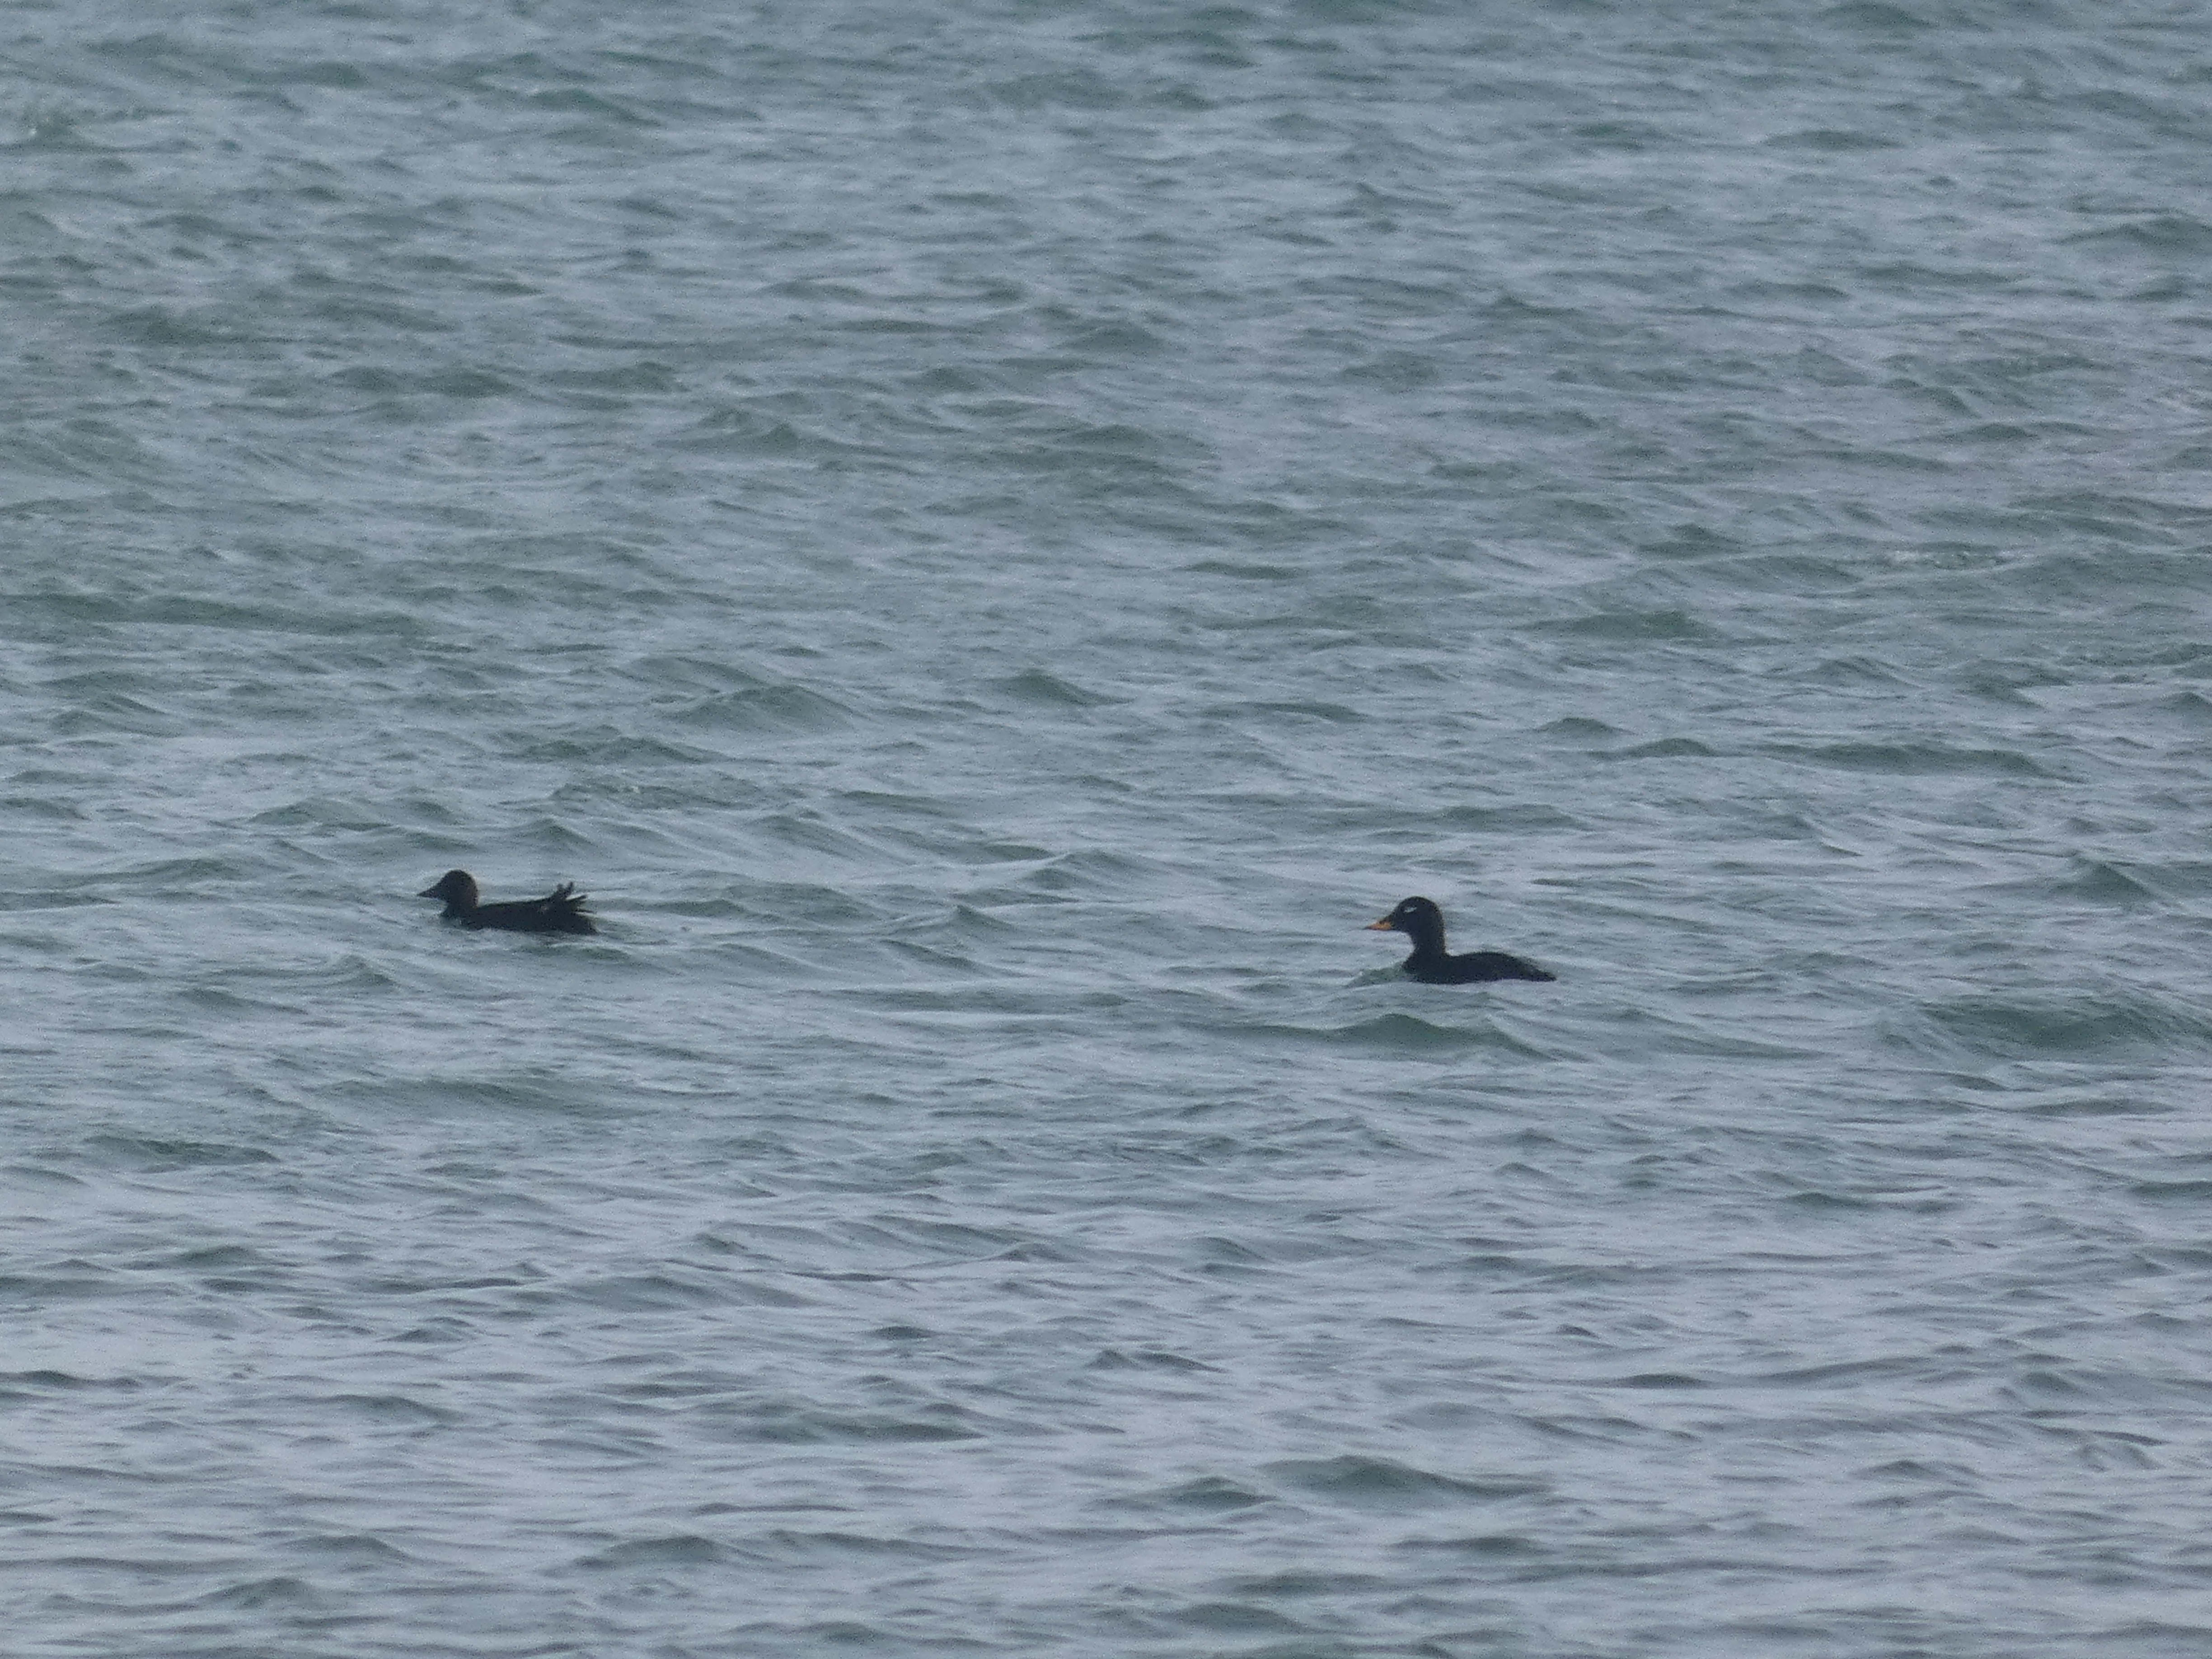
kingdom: Animalia
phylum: Chordata
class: Aves
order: Anseriformes
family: Anatidae
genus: Melanitta
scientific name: Melanitta fusca
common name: Fløjlsand
